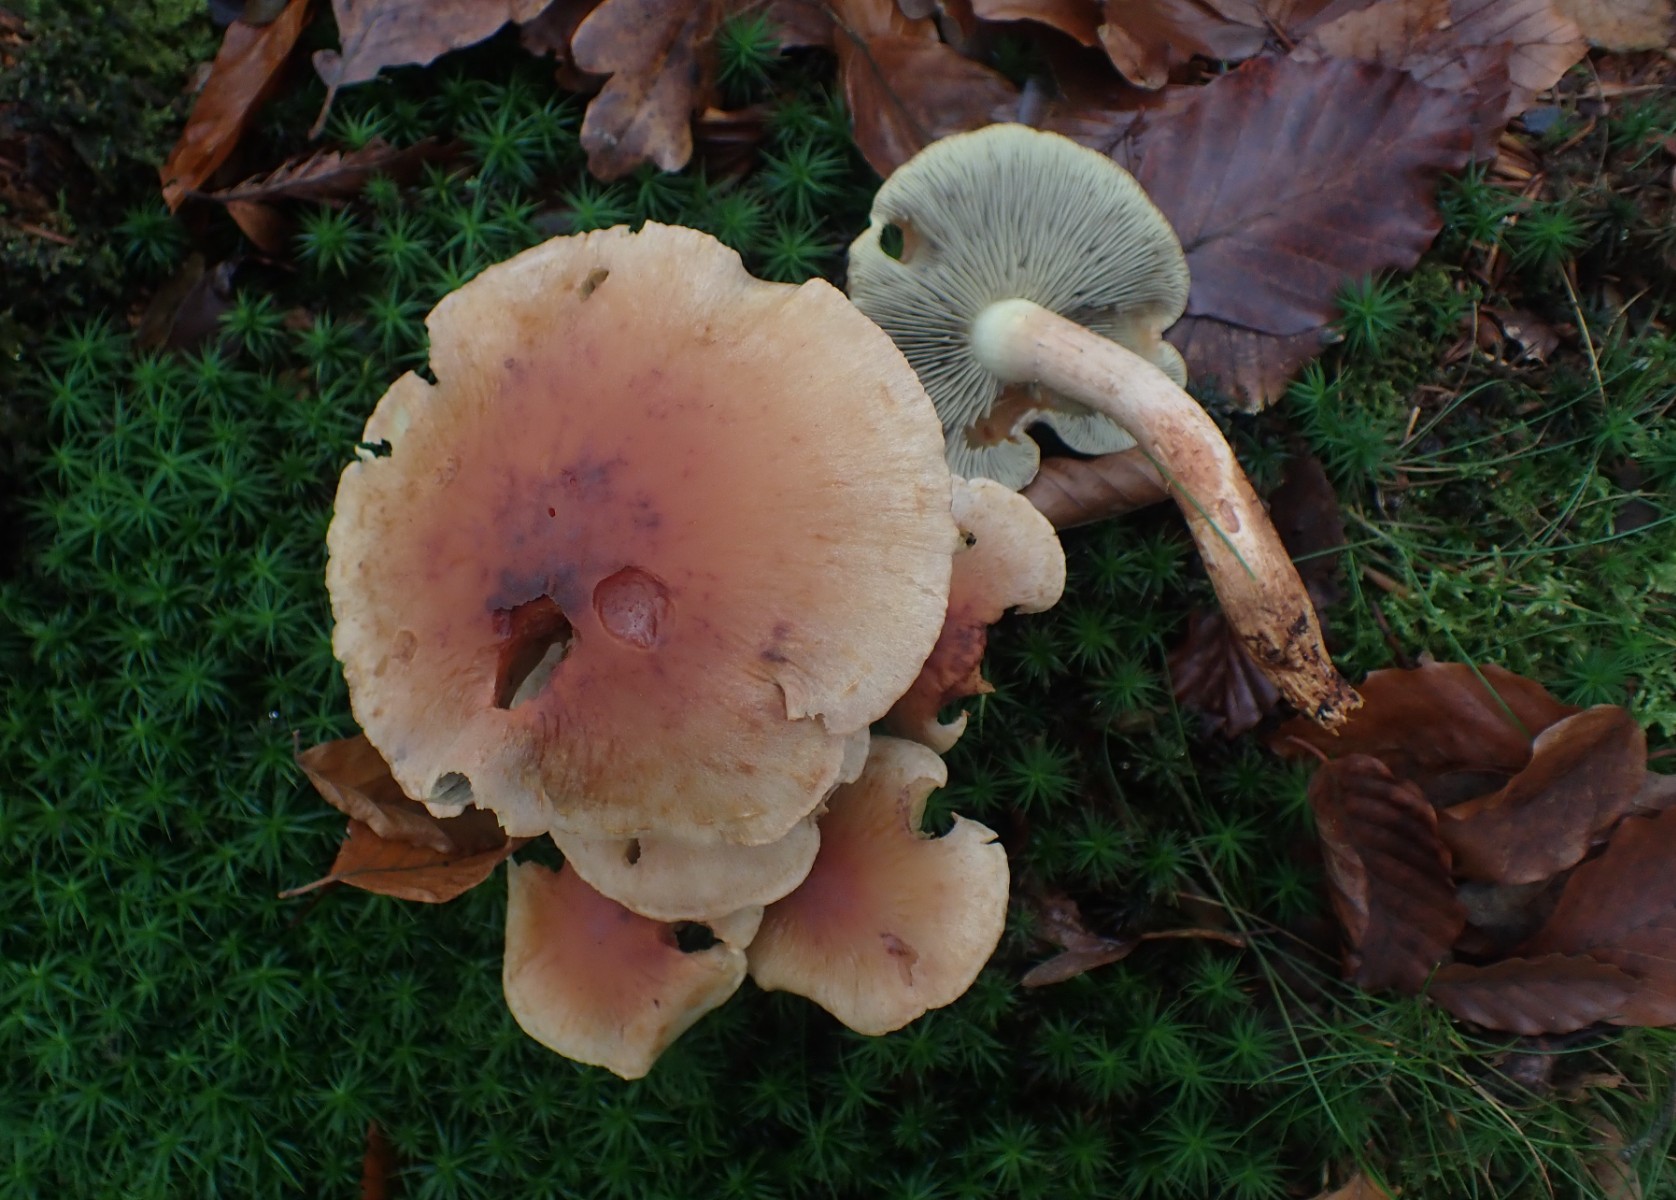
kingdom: Fungi
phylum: Basidiomycota
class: Agaricomycetes
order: Agaricales
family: Strophariaceae
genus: Hypholoma
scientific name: Hypholoma lateritium
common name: teglrød svovlhat
